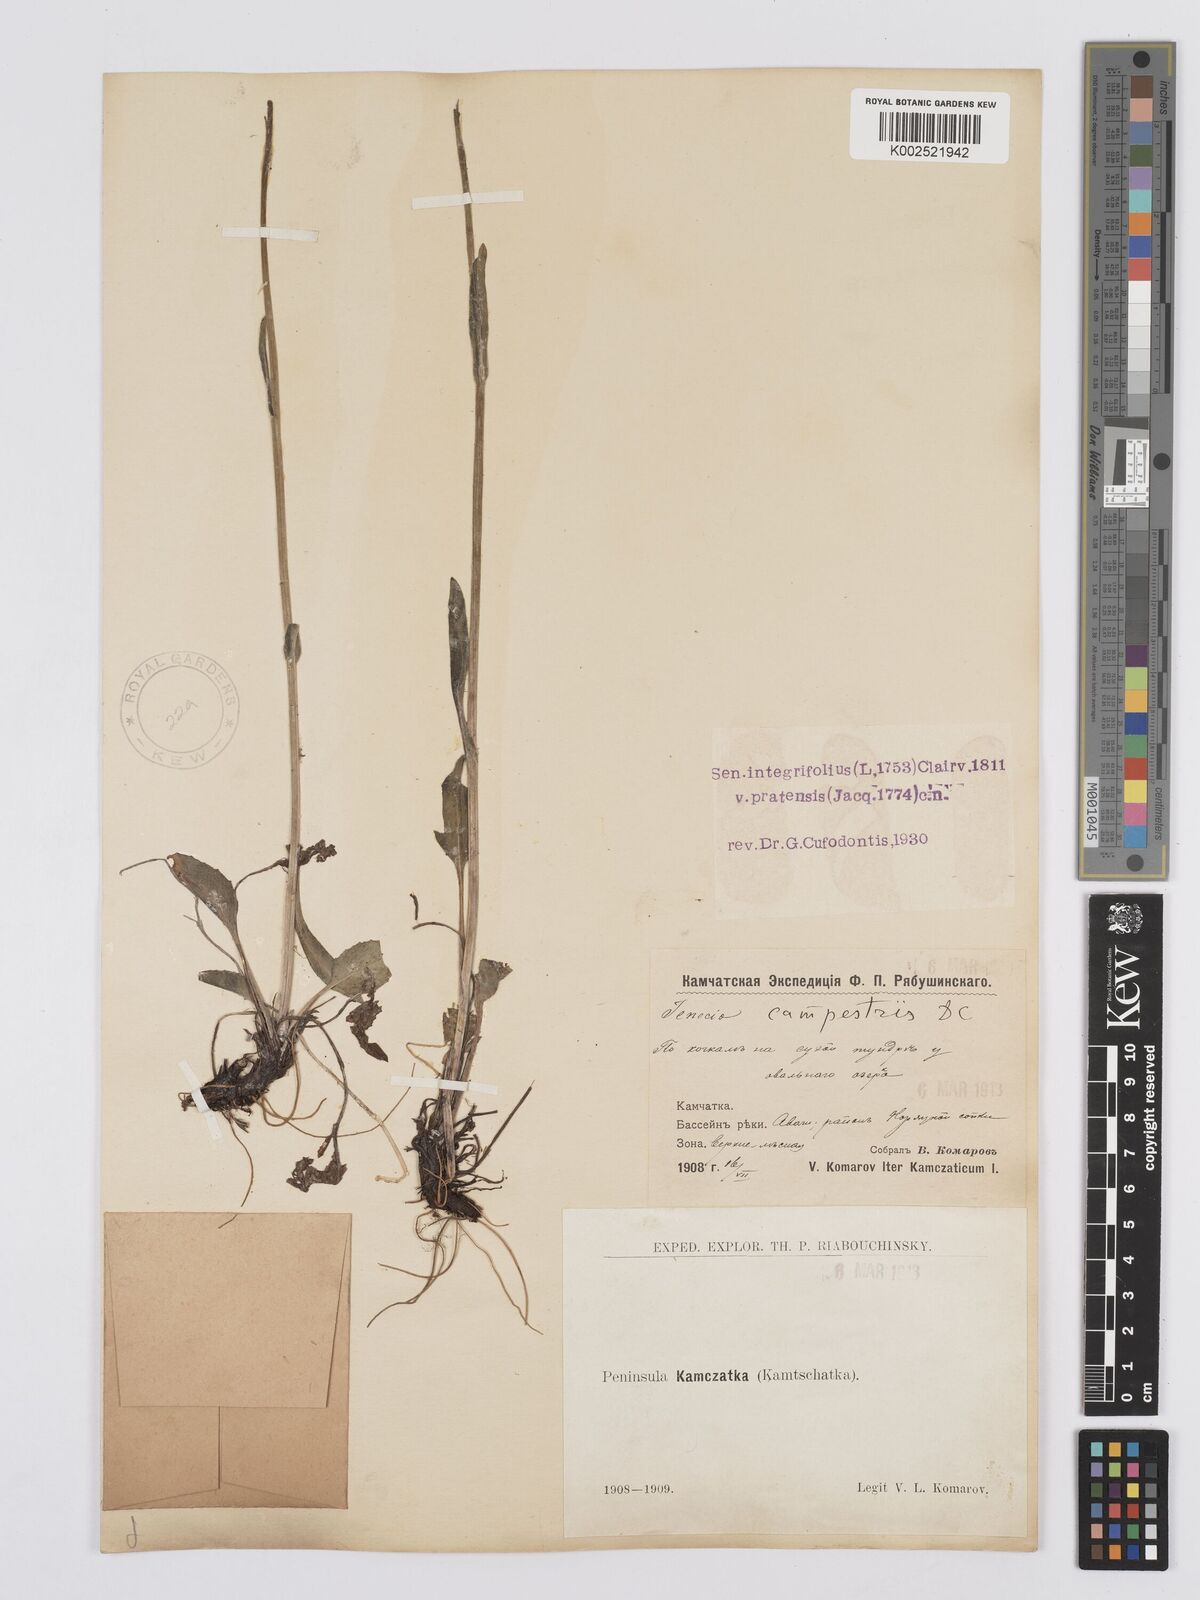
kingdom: Plantae
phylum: Tracheophyta
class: Magnoliopsida
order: Asterales
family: Asteraceae
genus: Tephroseris
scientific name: Tephroseris integrifolia
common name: Field fleawort
